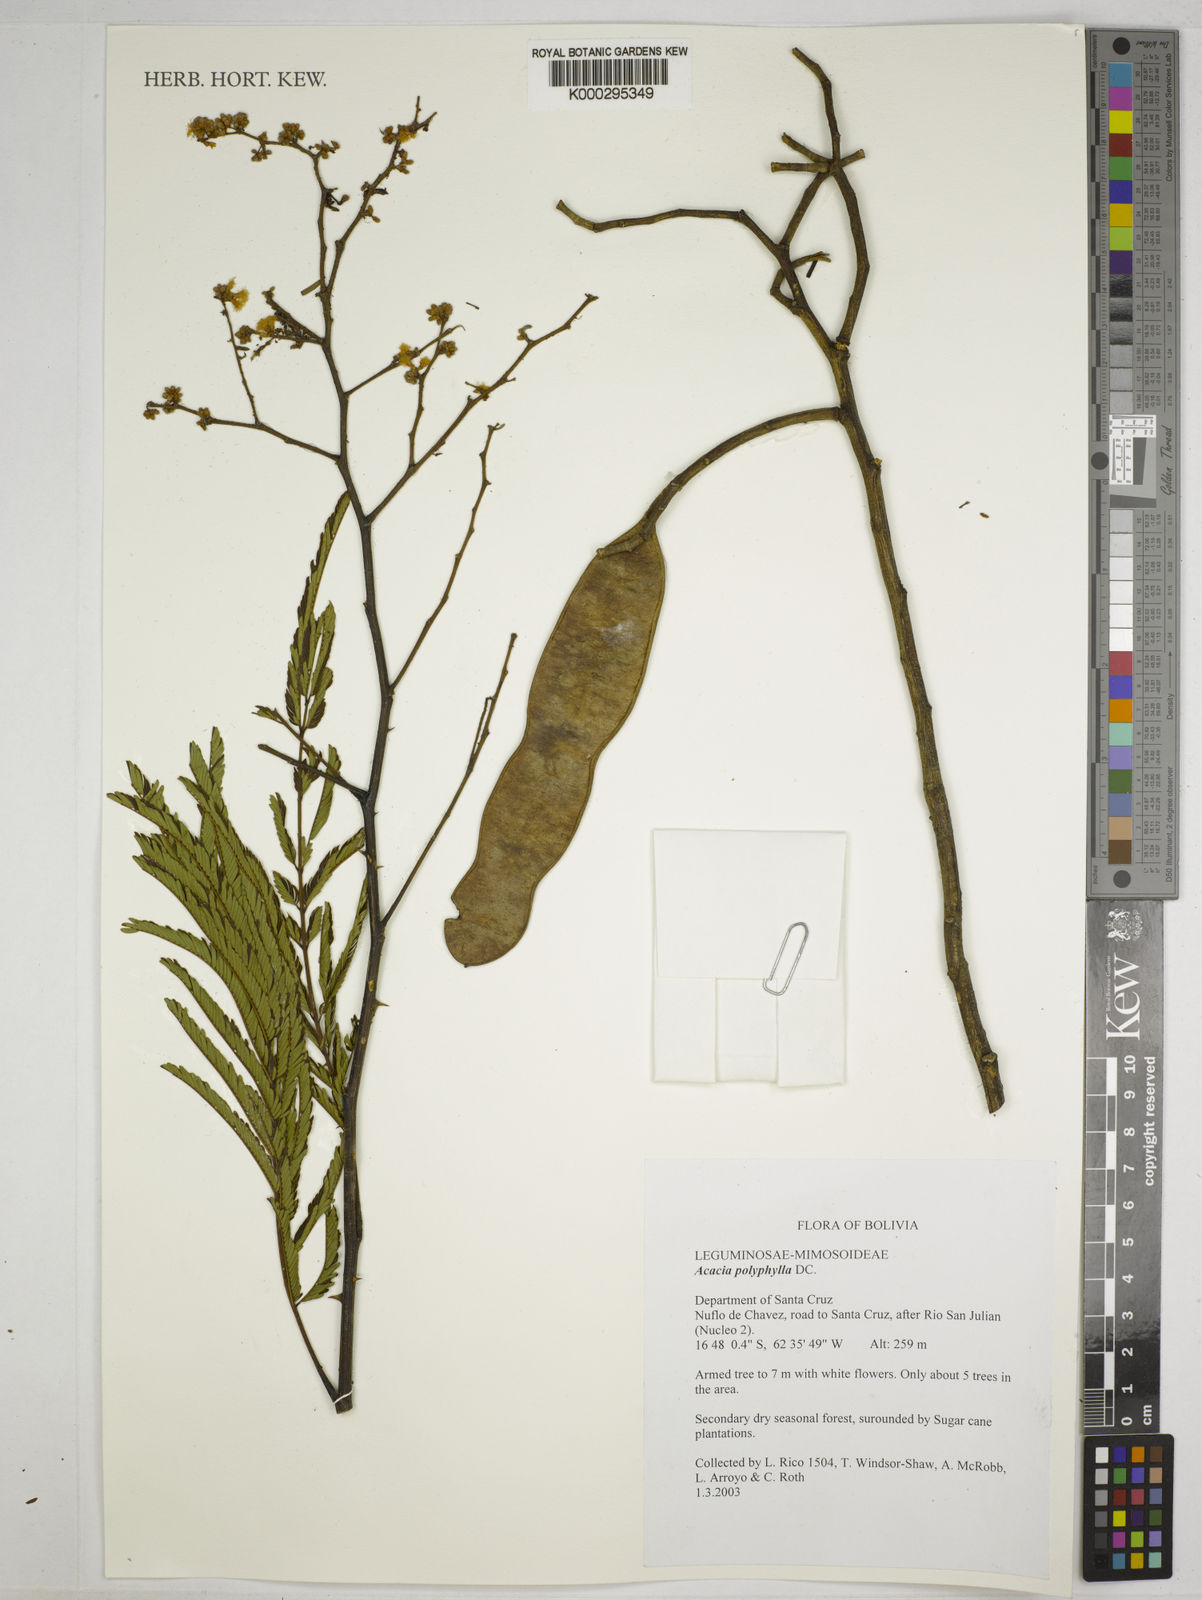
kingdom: Plantae
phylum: Tracheophyta
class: Magnoliopsida
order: Fabales
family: Fabaceae
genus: Senegalia
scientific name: Senegalia polyphylla
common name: White-tamarind
